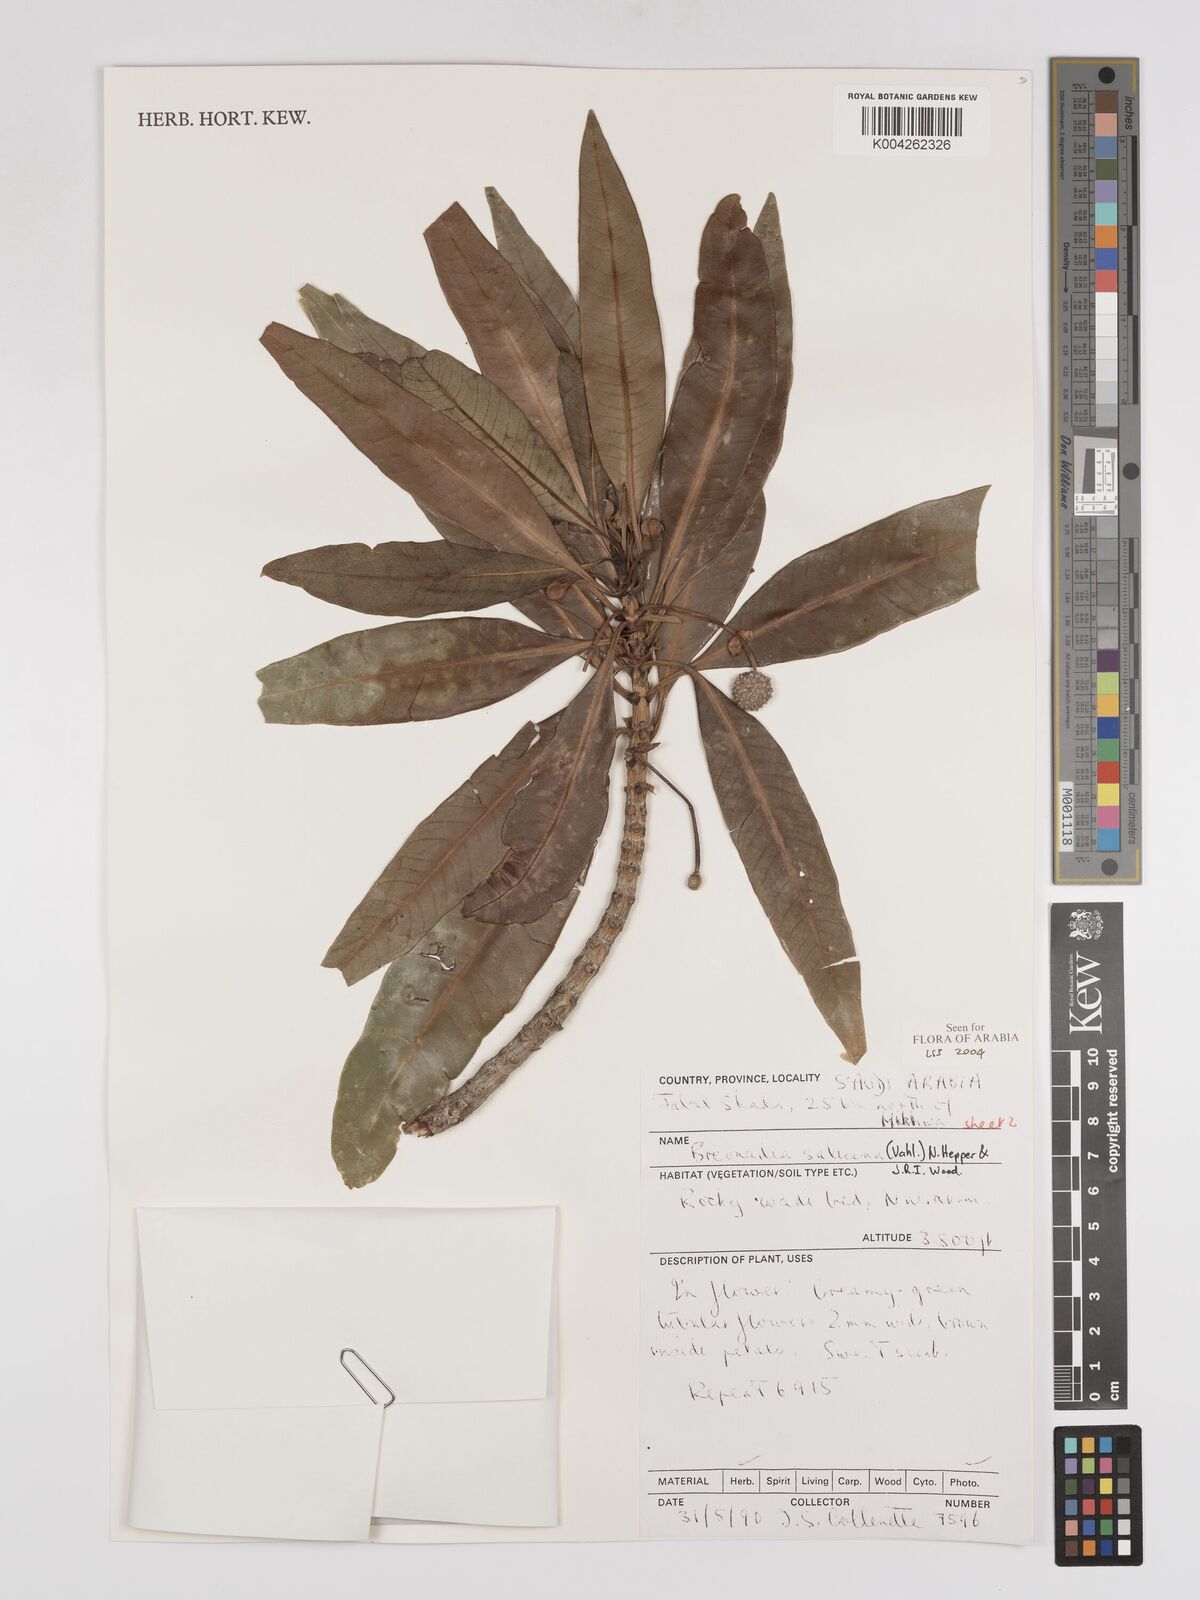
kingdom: Plantae
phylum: Tracheophyta
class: Magnoliopsida
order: Gentianales
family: Rubiaceae
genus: Breonadia
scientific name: Breonadia salicina
